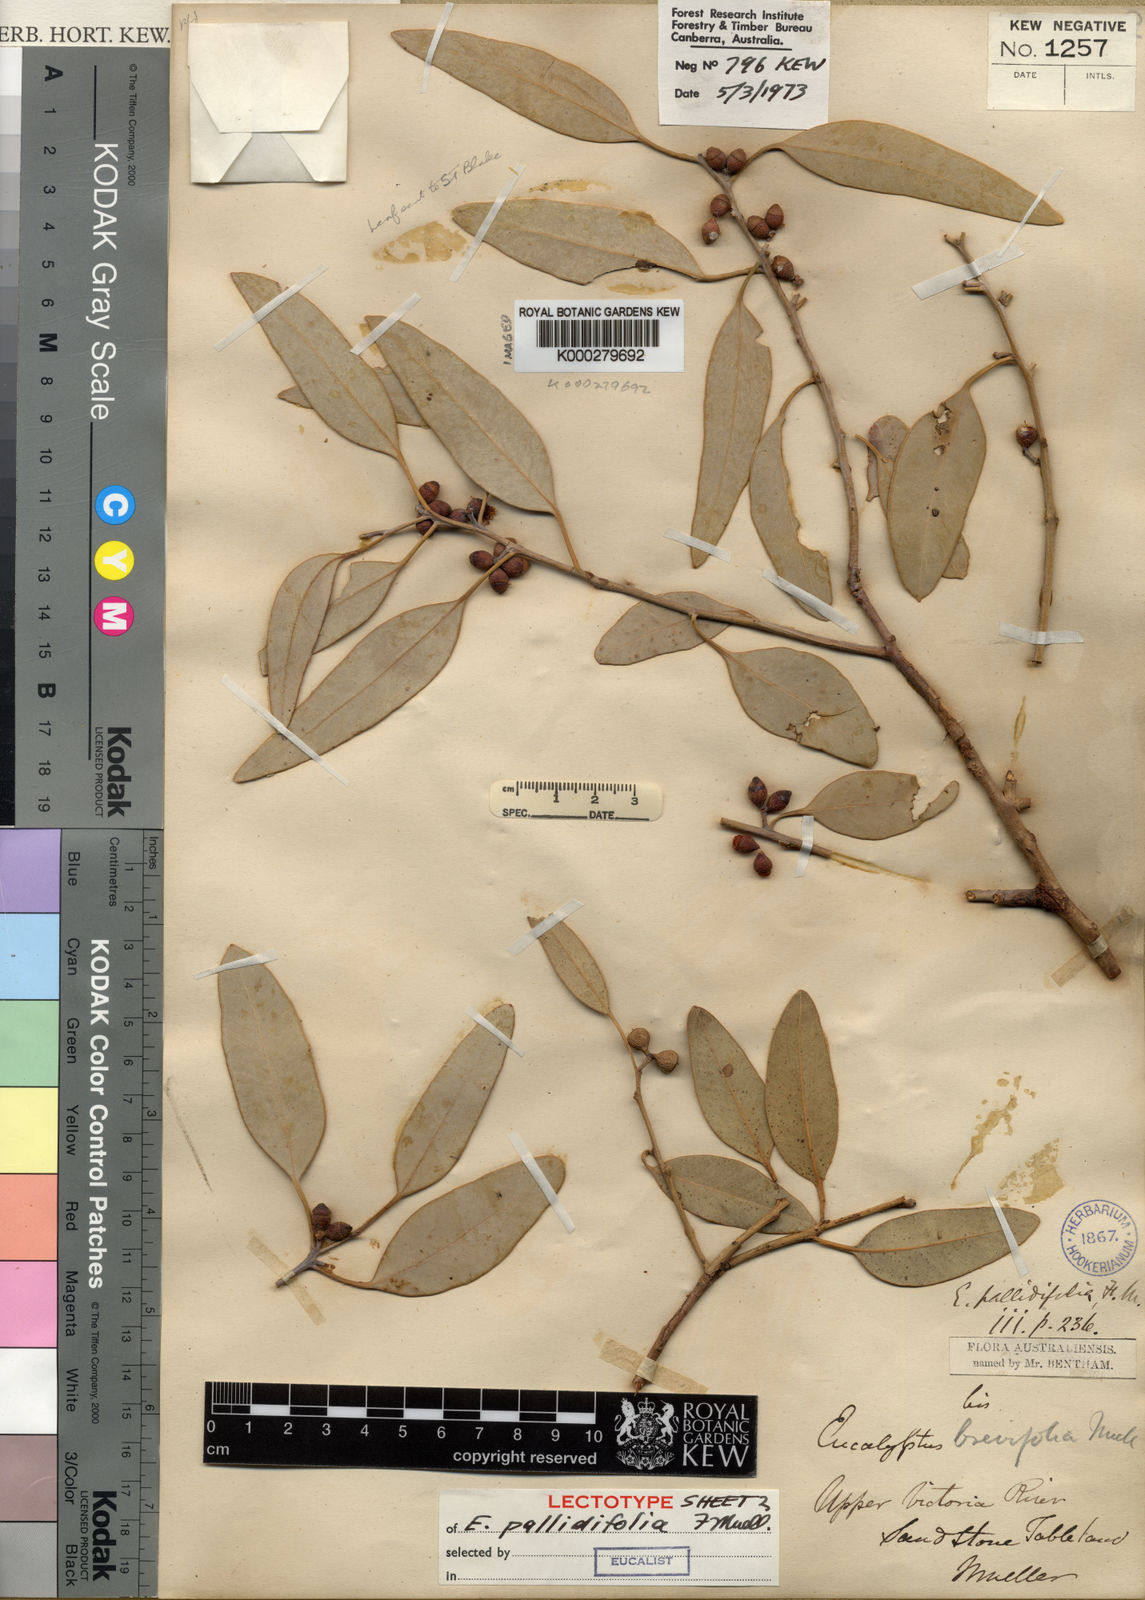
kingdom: Plantae
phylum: Tracheophyta
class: Magnoliopsida
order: Myrtales
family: Myrtaceae
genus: Eucalyptus
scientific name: Eucalyptus brevifolia
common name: Northern-white-gum
